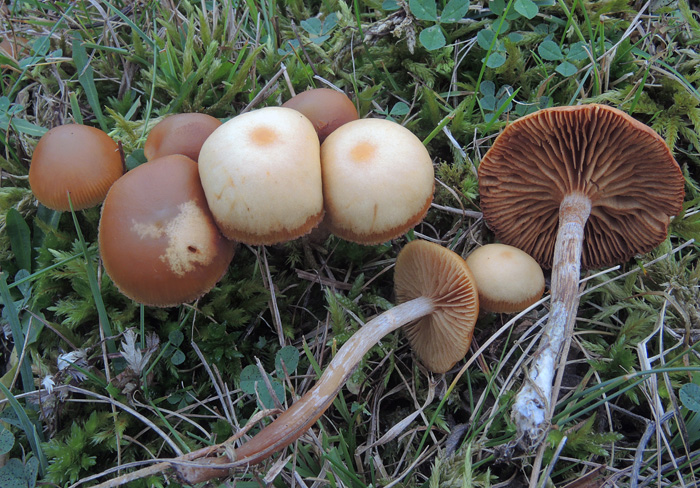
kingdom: Fungi
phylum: Basidiomycota
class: Agaricomycetes
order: Agaricales
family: Hymenogastraceae
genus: Galerina
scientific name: Galerina esteve-raventosii
